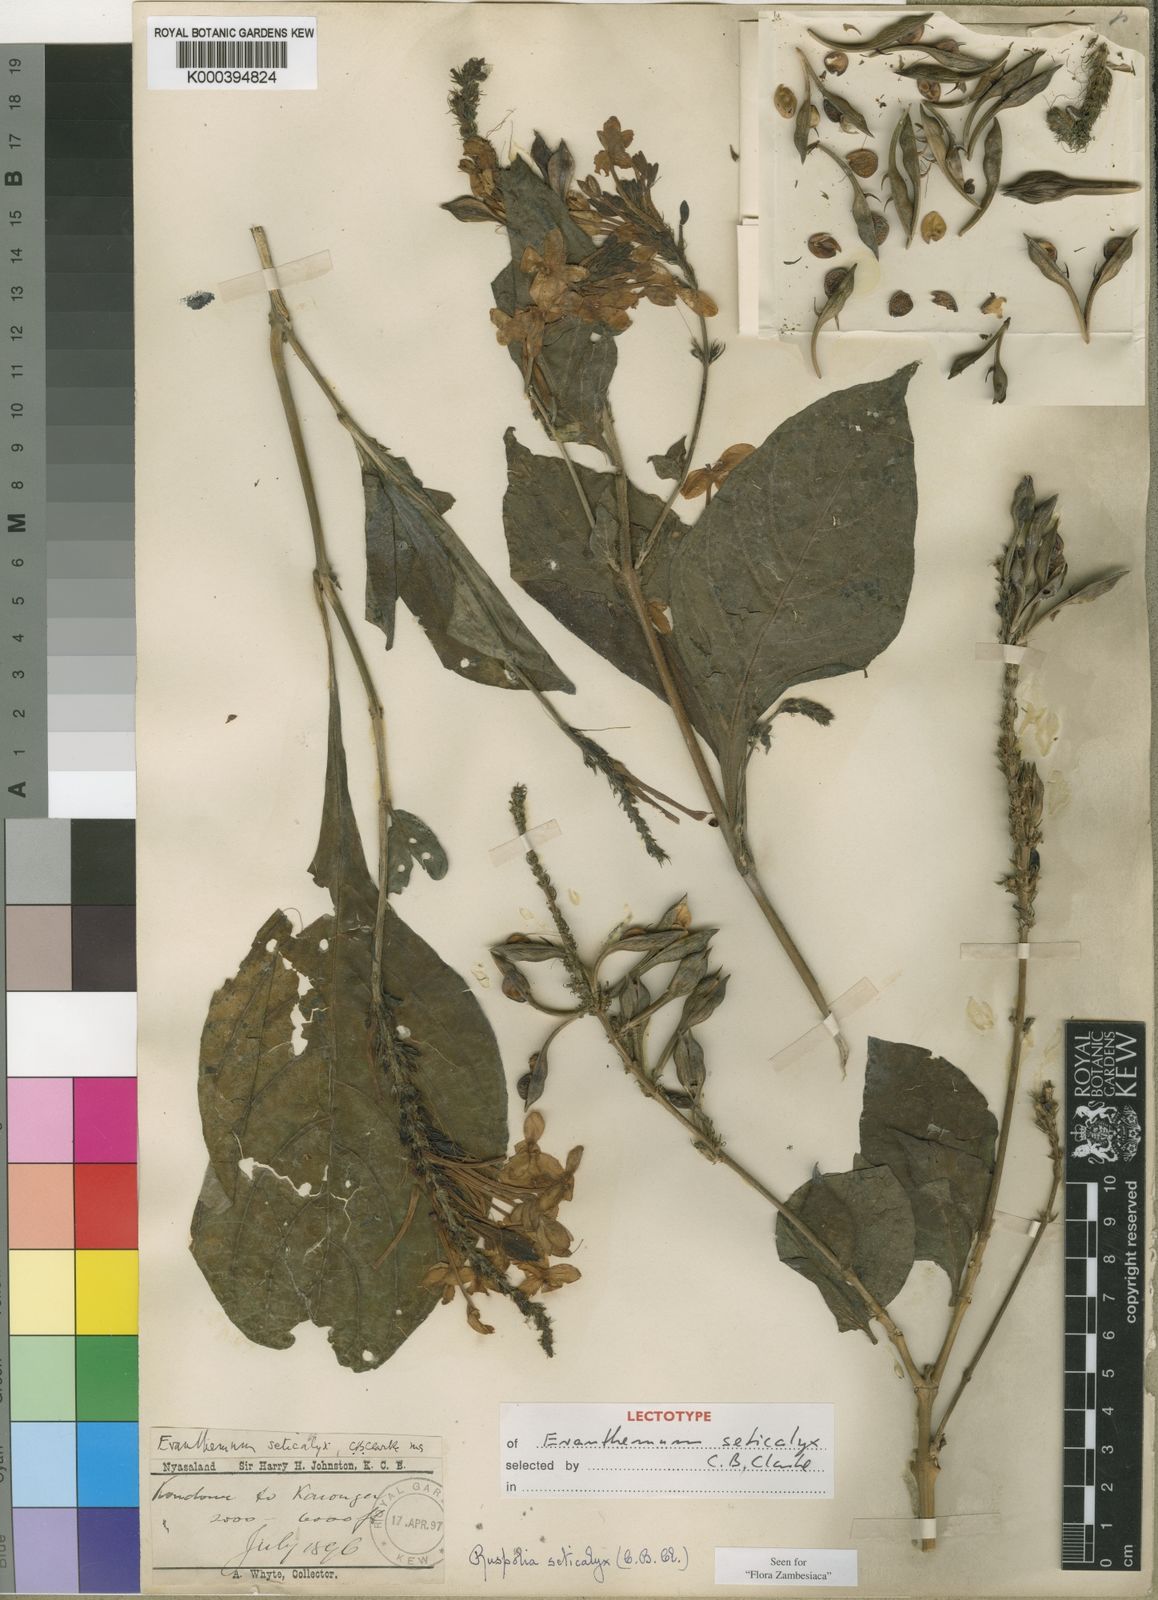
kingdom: Plantae
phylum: Tracheophyta
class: Magnoliopsida
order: Lamiales
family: Acanthaceae
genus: Ruspolia
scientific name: Ruspolia seticalyx
